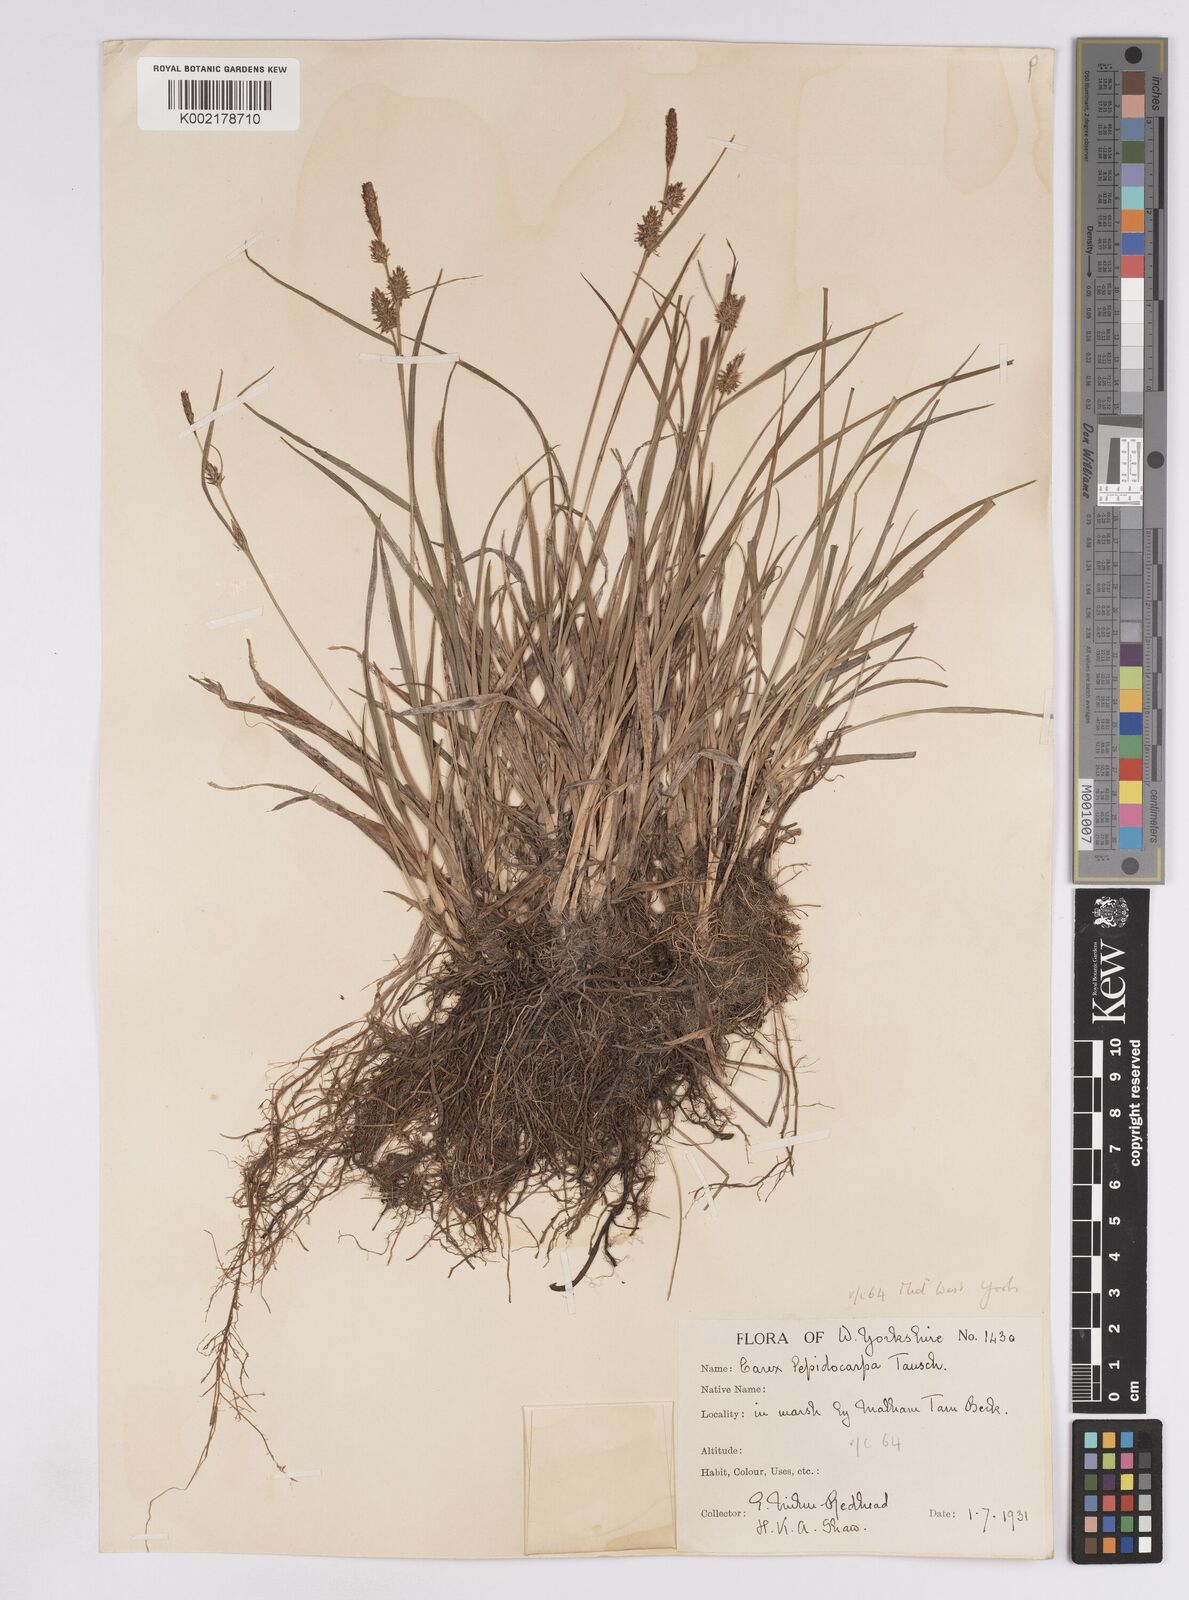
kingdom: Plantae
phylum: Tracheophyta
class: Liliopsida
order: Poales
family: Cyperaceae
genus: Carex
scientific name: Carex lepidocarpa
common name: Long-stalked yellow-sedge
